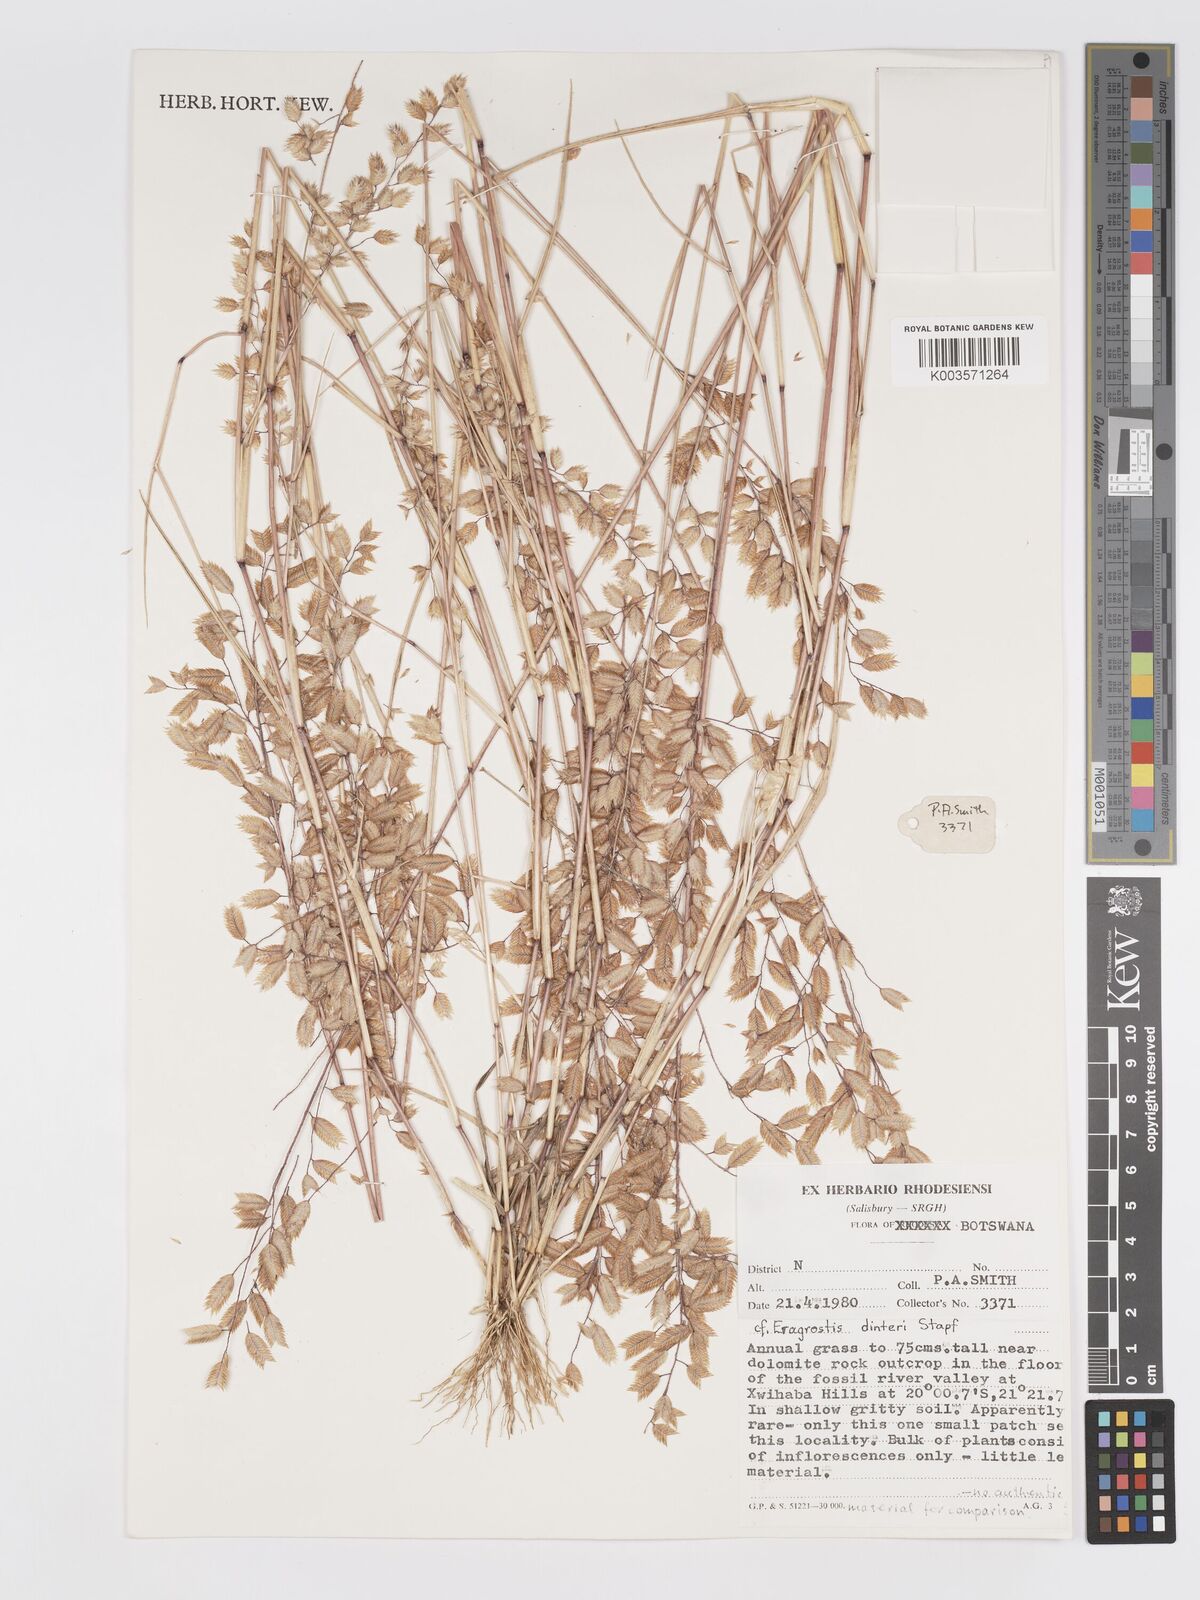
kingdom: Plantae
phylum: Tracheophyta
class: Liliopsida
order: Poales
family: Poaceae
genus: Eragrostis
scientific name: Eragrostis dinteri
